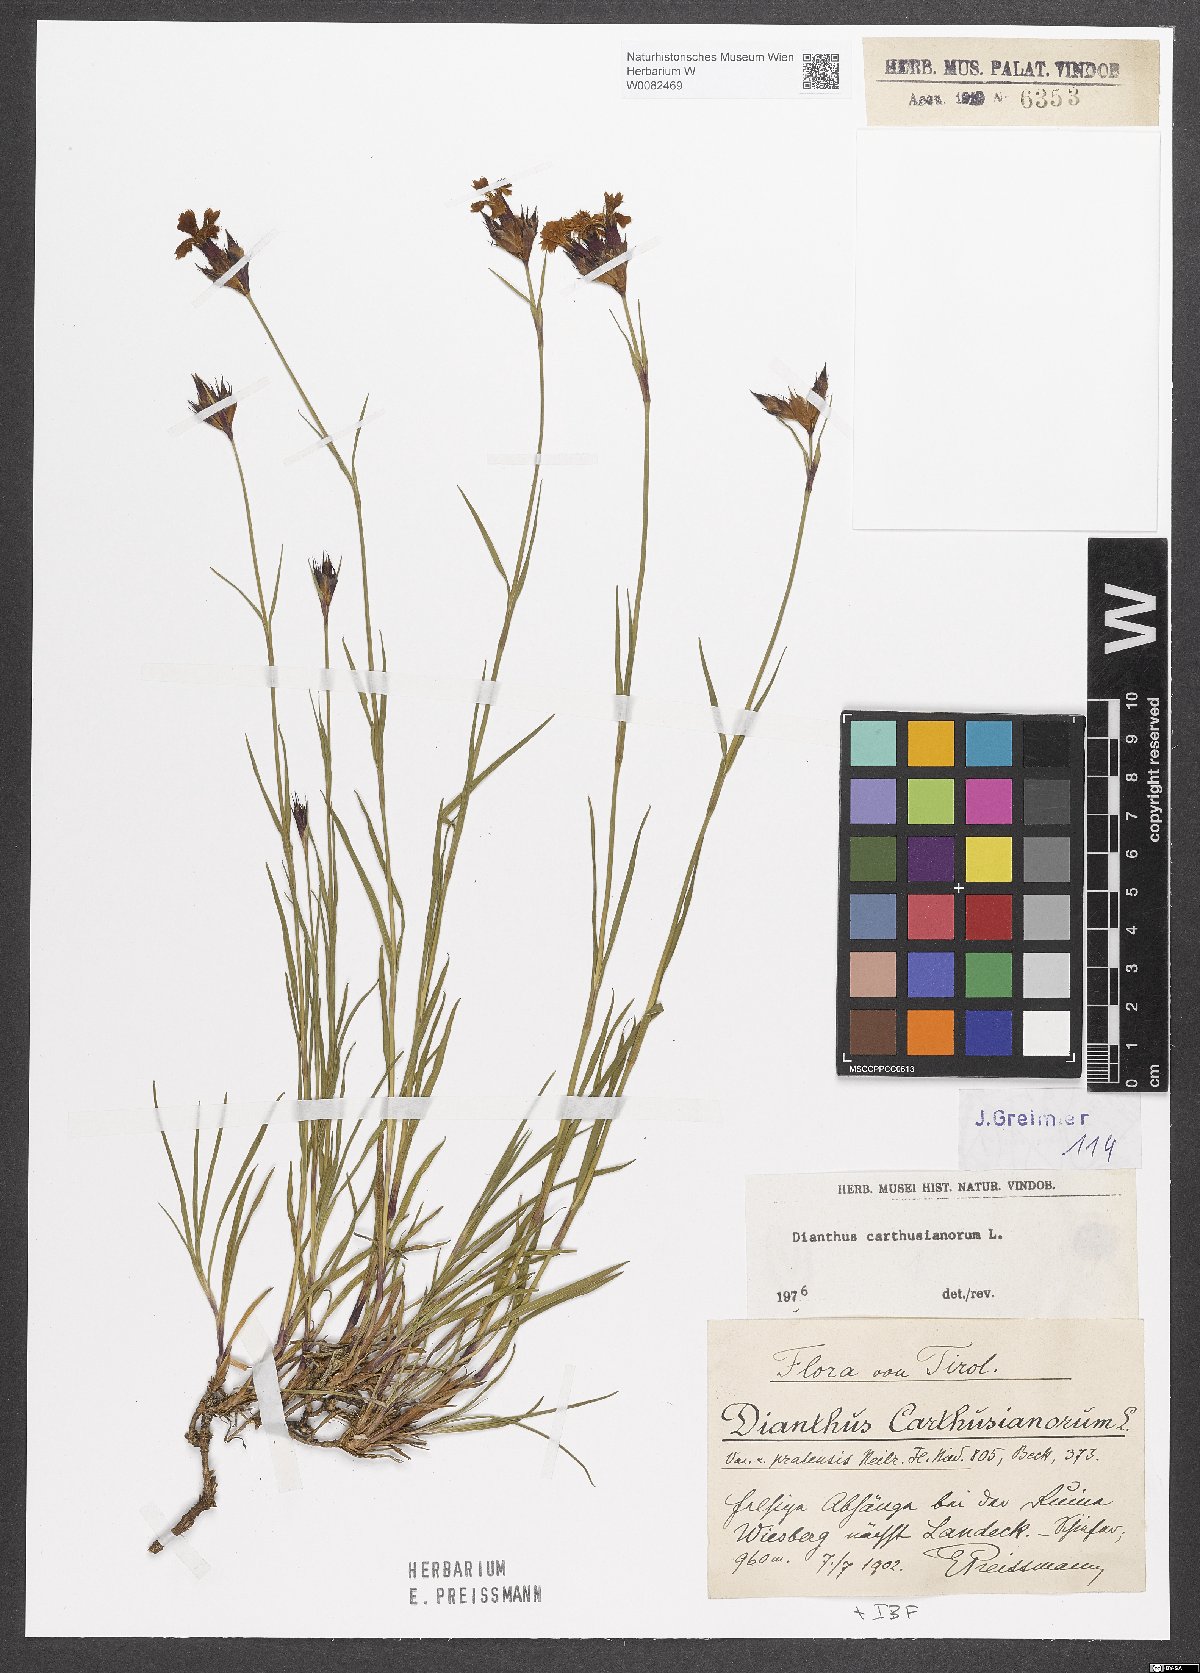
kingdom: Plantae
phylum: Tracheophyta
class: Magnoliopsida
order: Caryophyllales
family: Caryophyllaceae
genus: Dianthus
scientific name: Dianthus carthusianorum
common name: Carthusian pink
